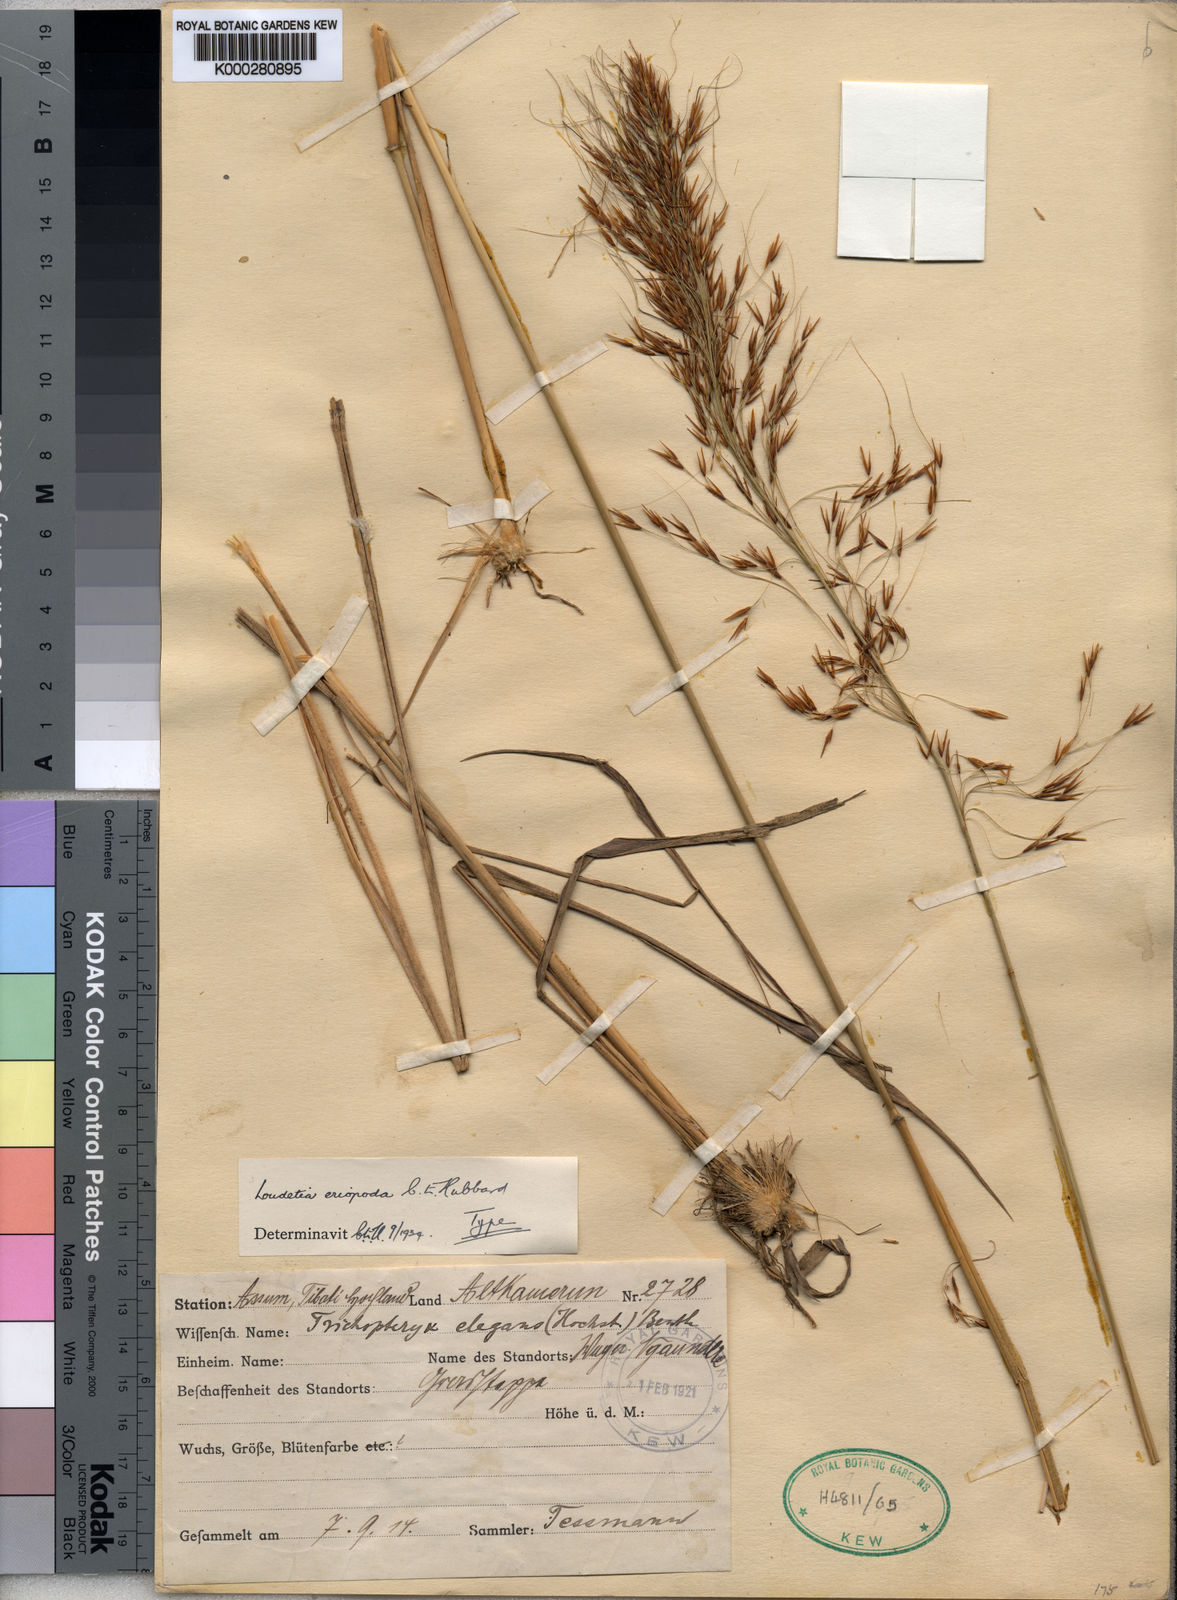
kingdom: Plantae
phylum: Tracheophyta
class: Liliopsida
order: Poales
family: Poaceae
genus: Loudetia
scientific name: Loudetia arundinacea
